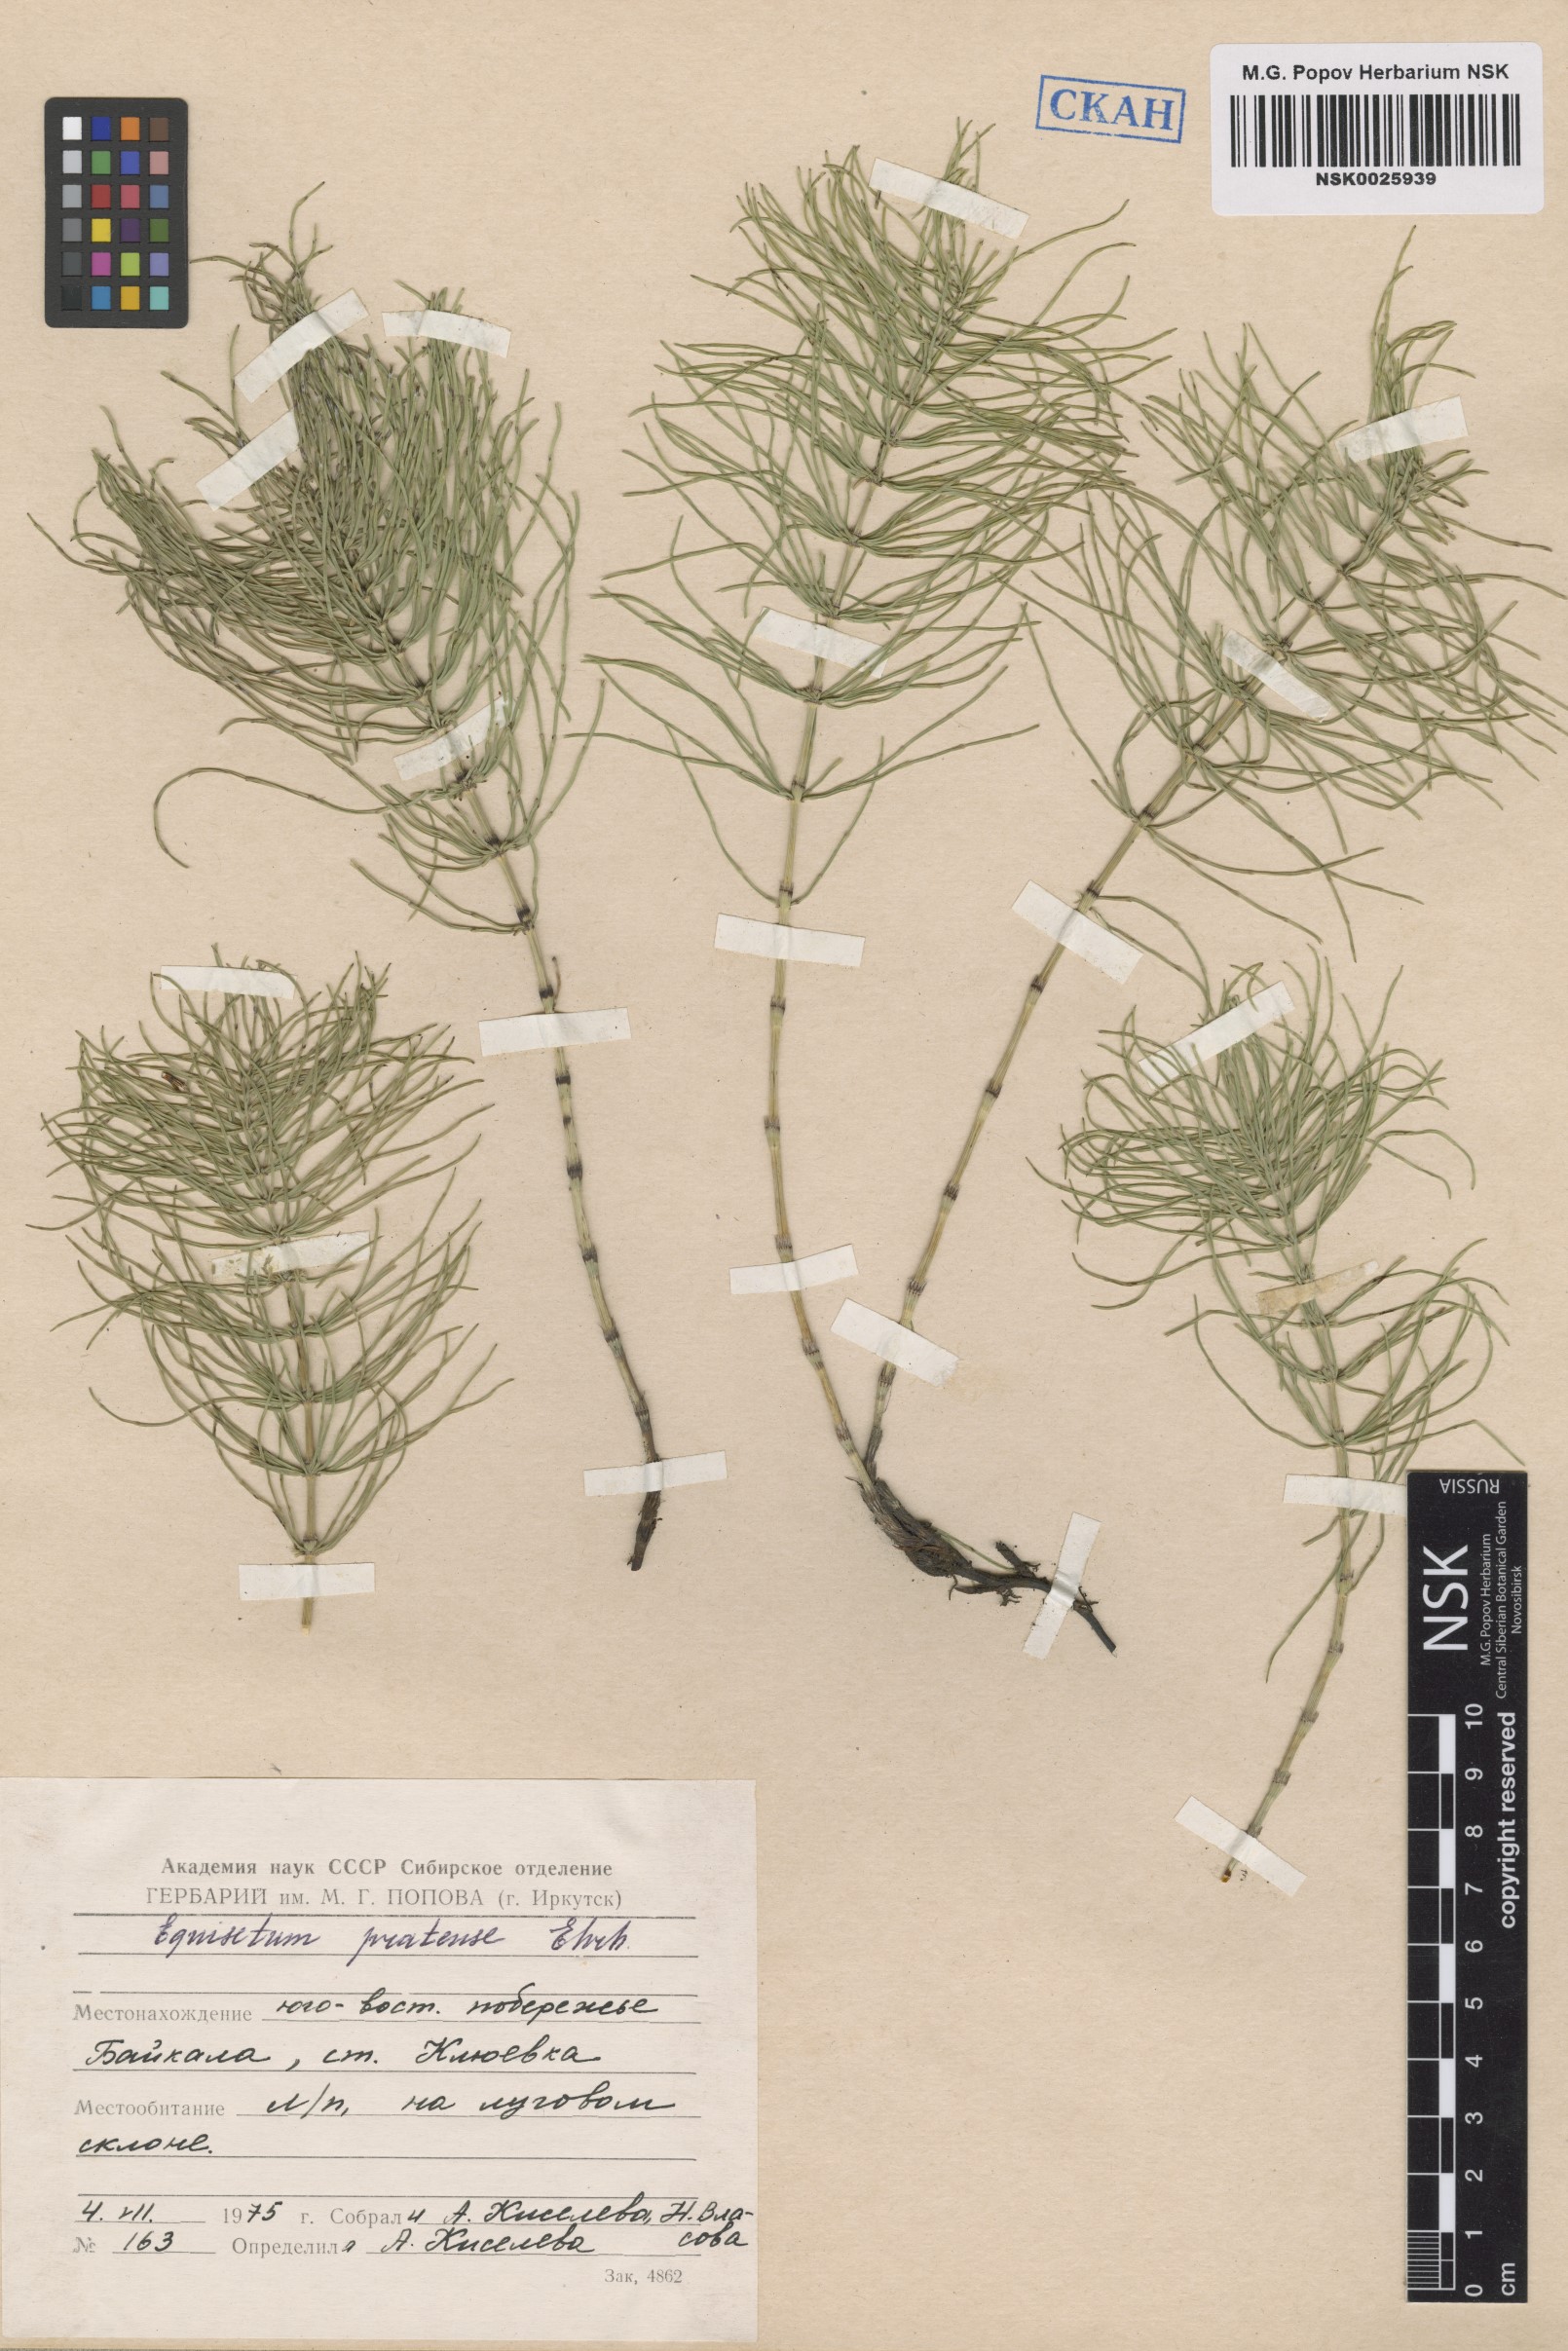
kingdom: Plantae
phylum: Tracheophyta
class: Polypodiopsida
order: Equisetales
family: Equisetaceae
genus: Equisetum
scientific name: Equisetum pratense
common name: Meadow horsetail
